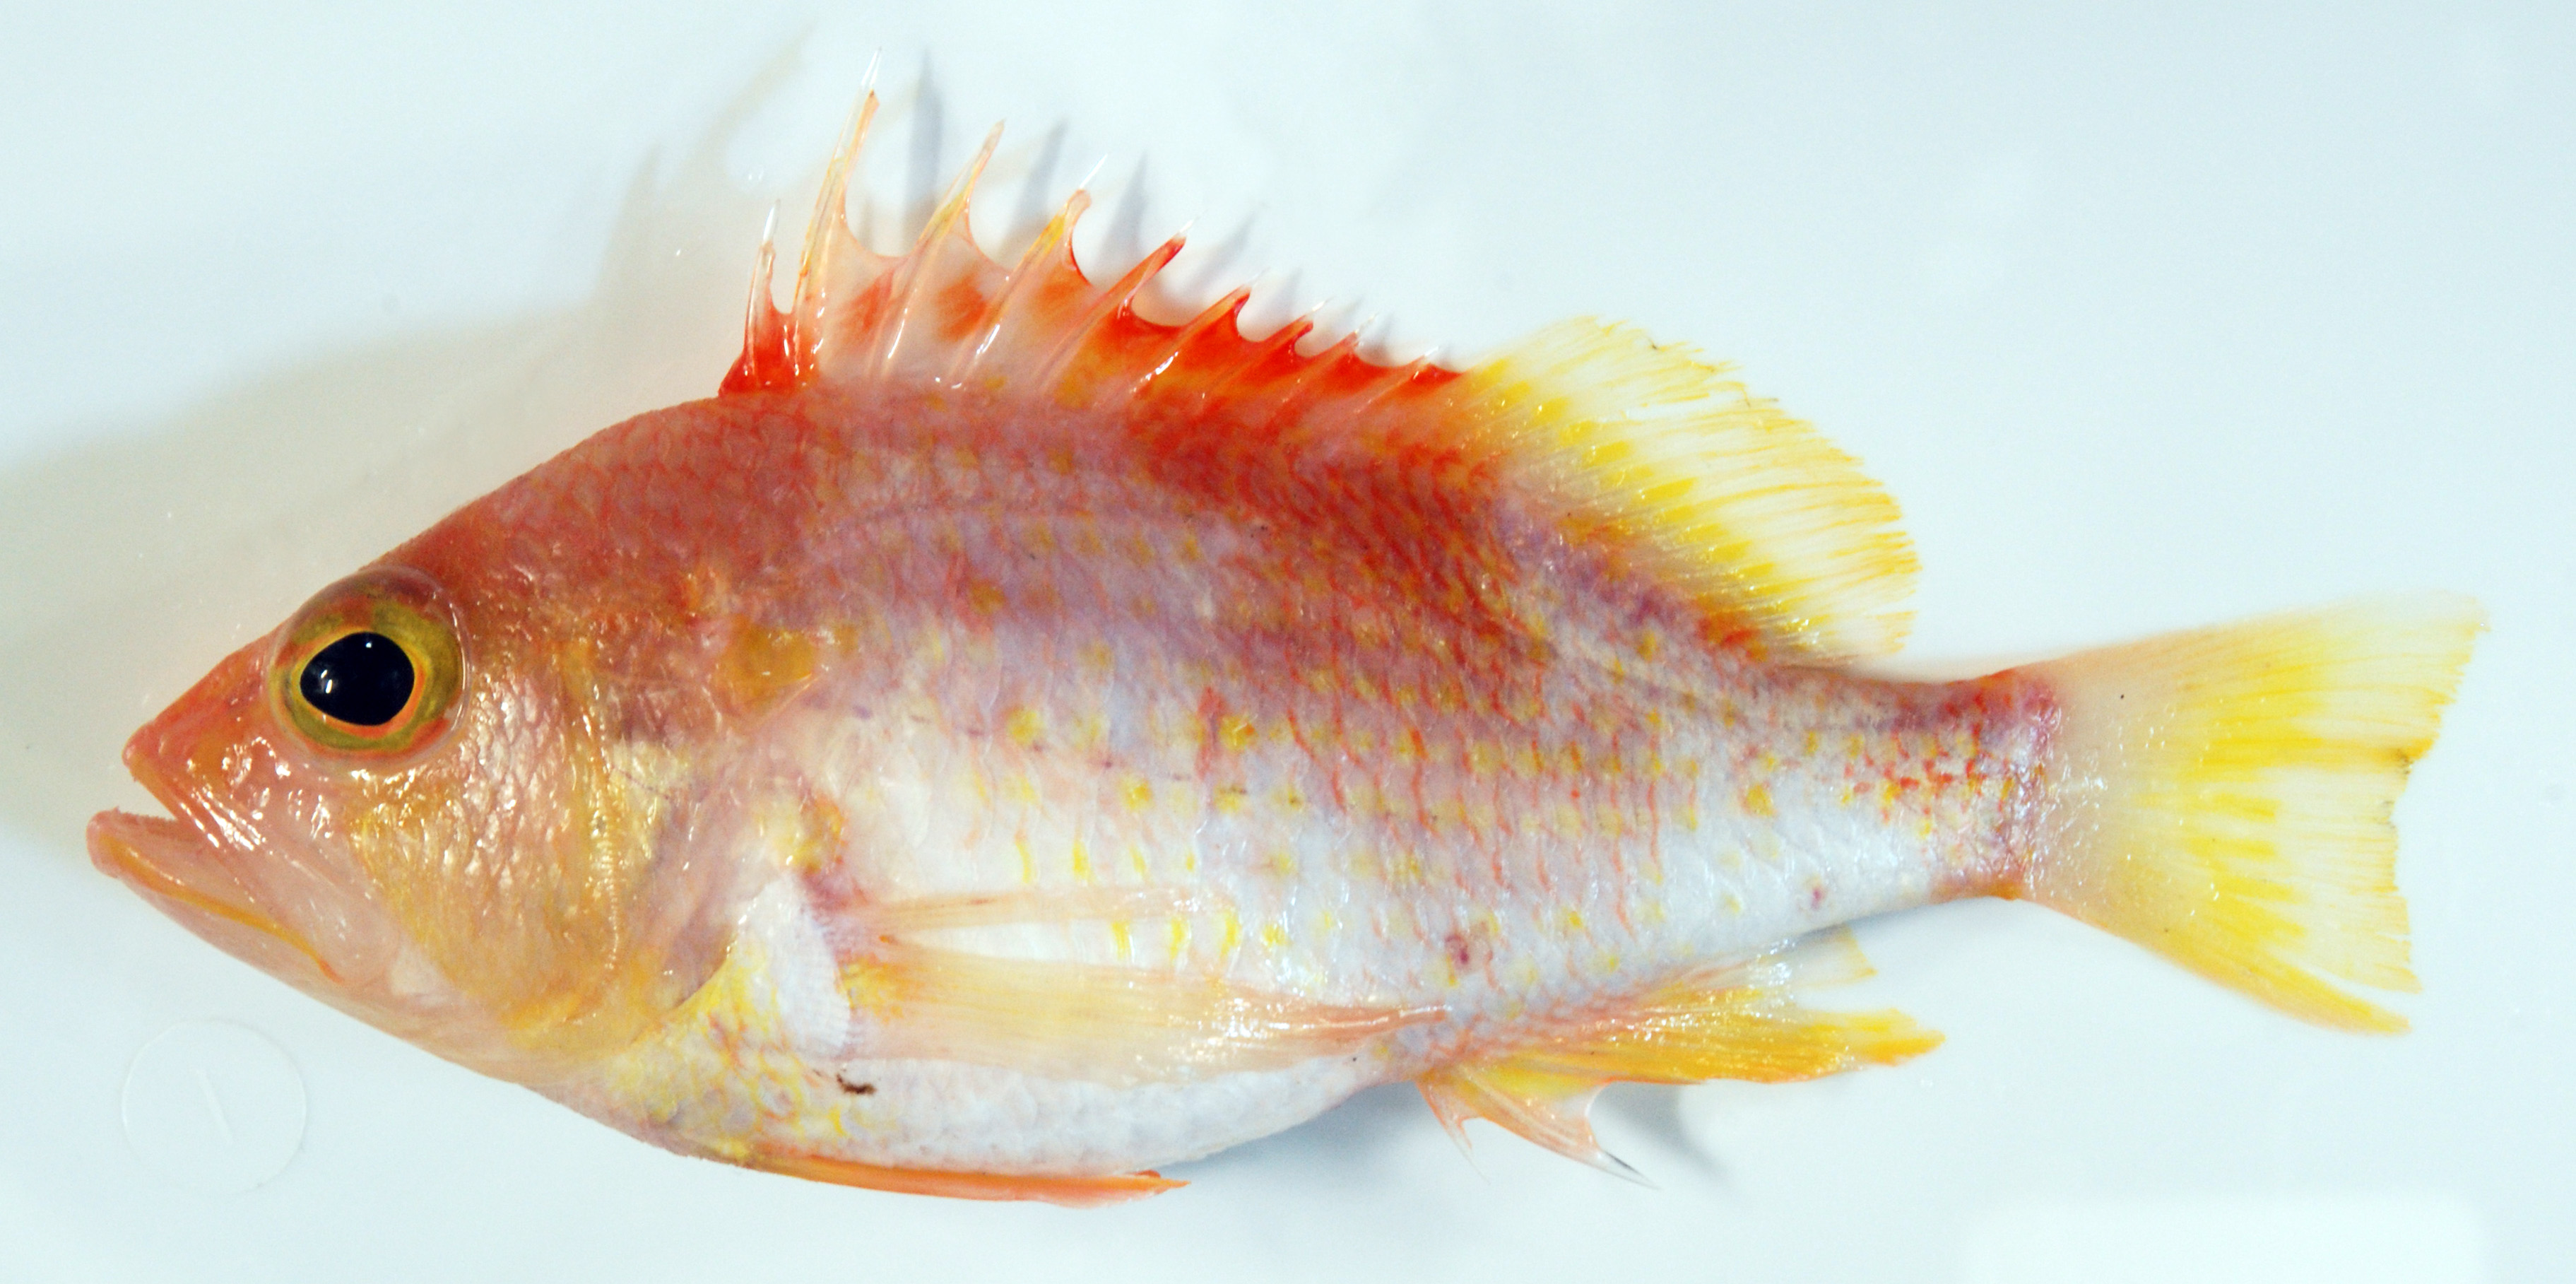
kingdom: Animalia
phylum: Chordata
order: Perciformes
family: Serranidae
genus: Plectranthias
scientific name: Plectranthias bauchotae
